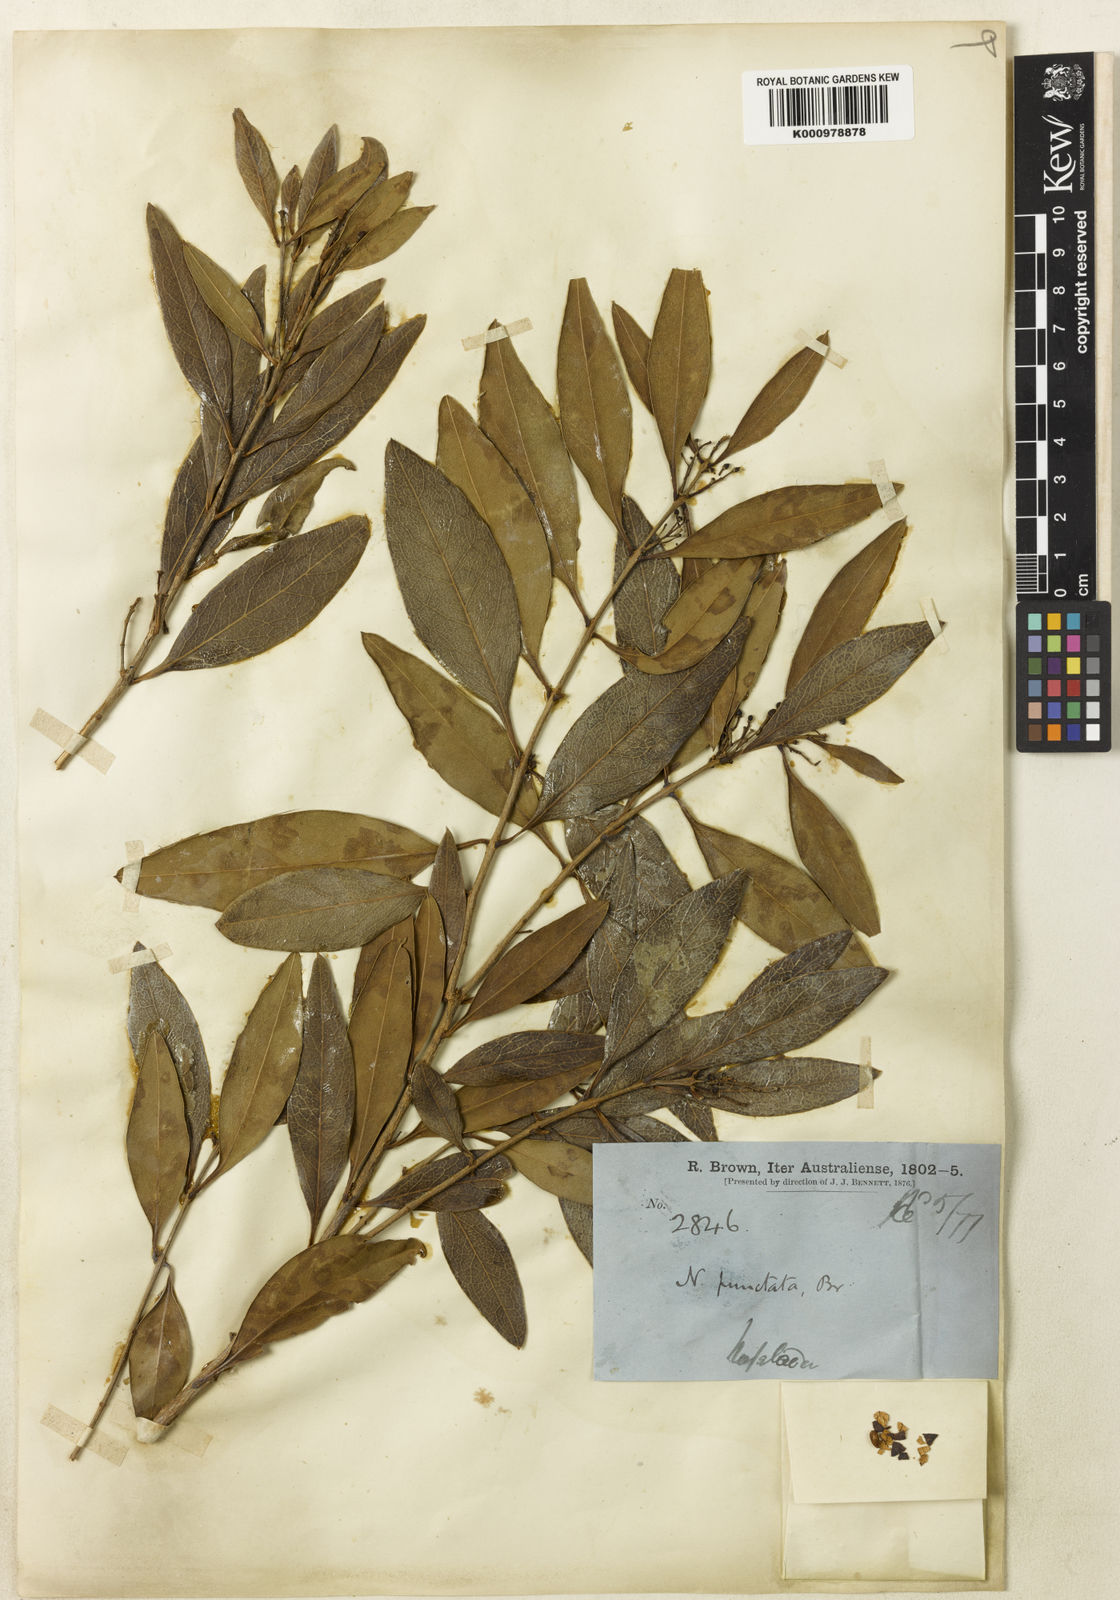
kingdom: Plantae
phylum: Tracheophyta
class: Magnoliopsida
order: Lamiales
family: Oleaceae
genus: Notelaea
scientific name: Notelaea punctata
